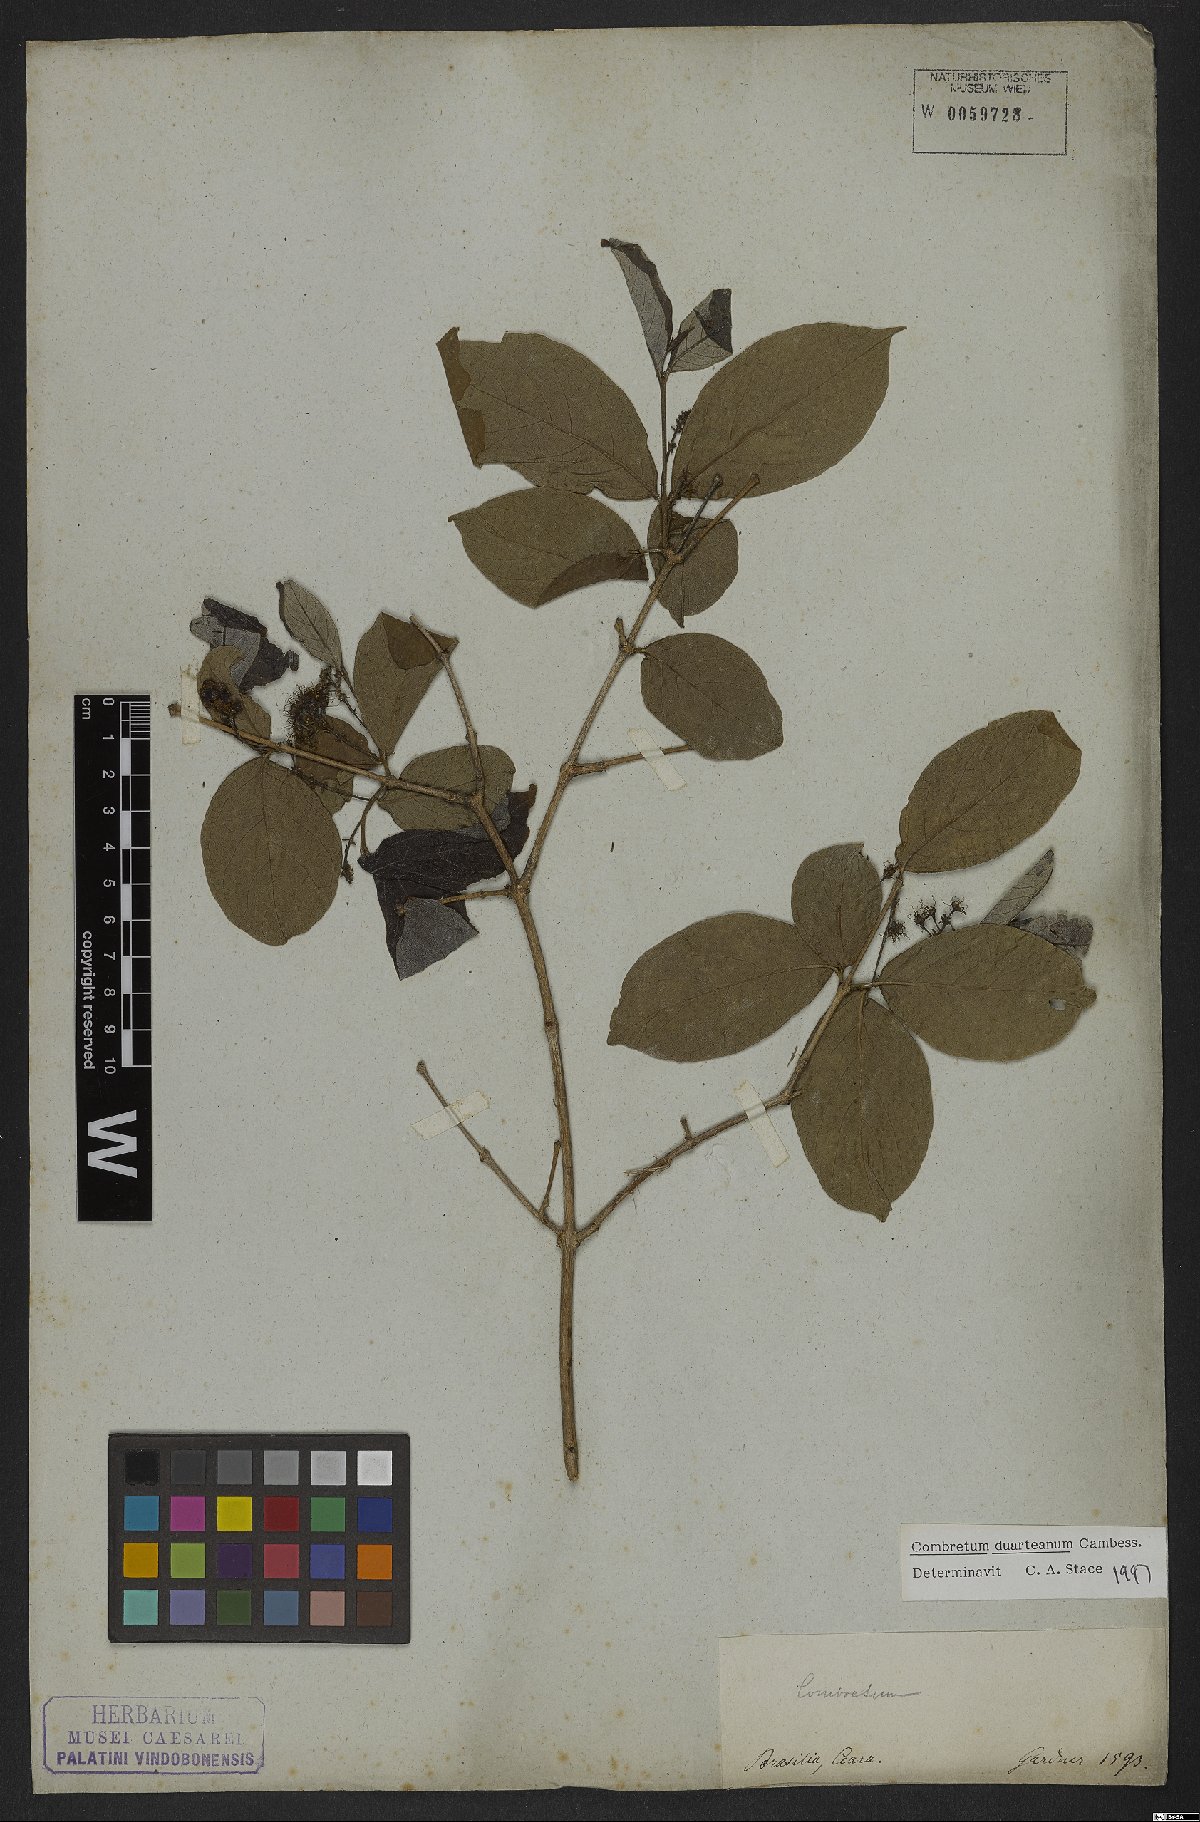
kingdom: Plantae
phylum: Tracheophyta
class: Magnoliopsida
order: Myrtales
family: Combretaceae
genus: Combretum
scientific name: Combretum duarteanum
